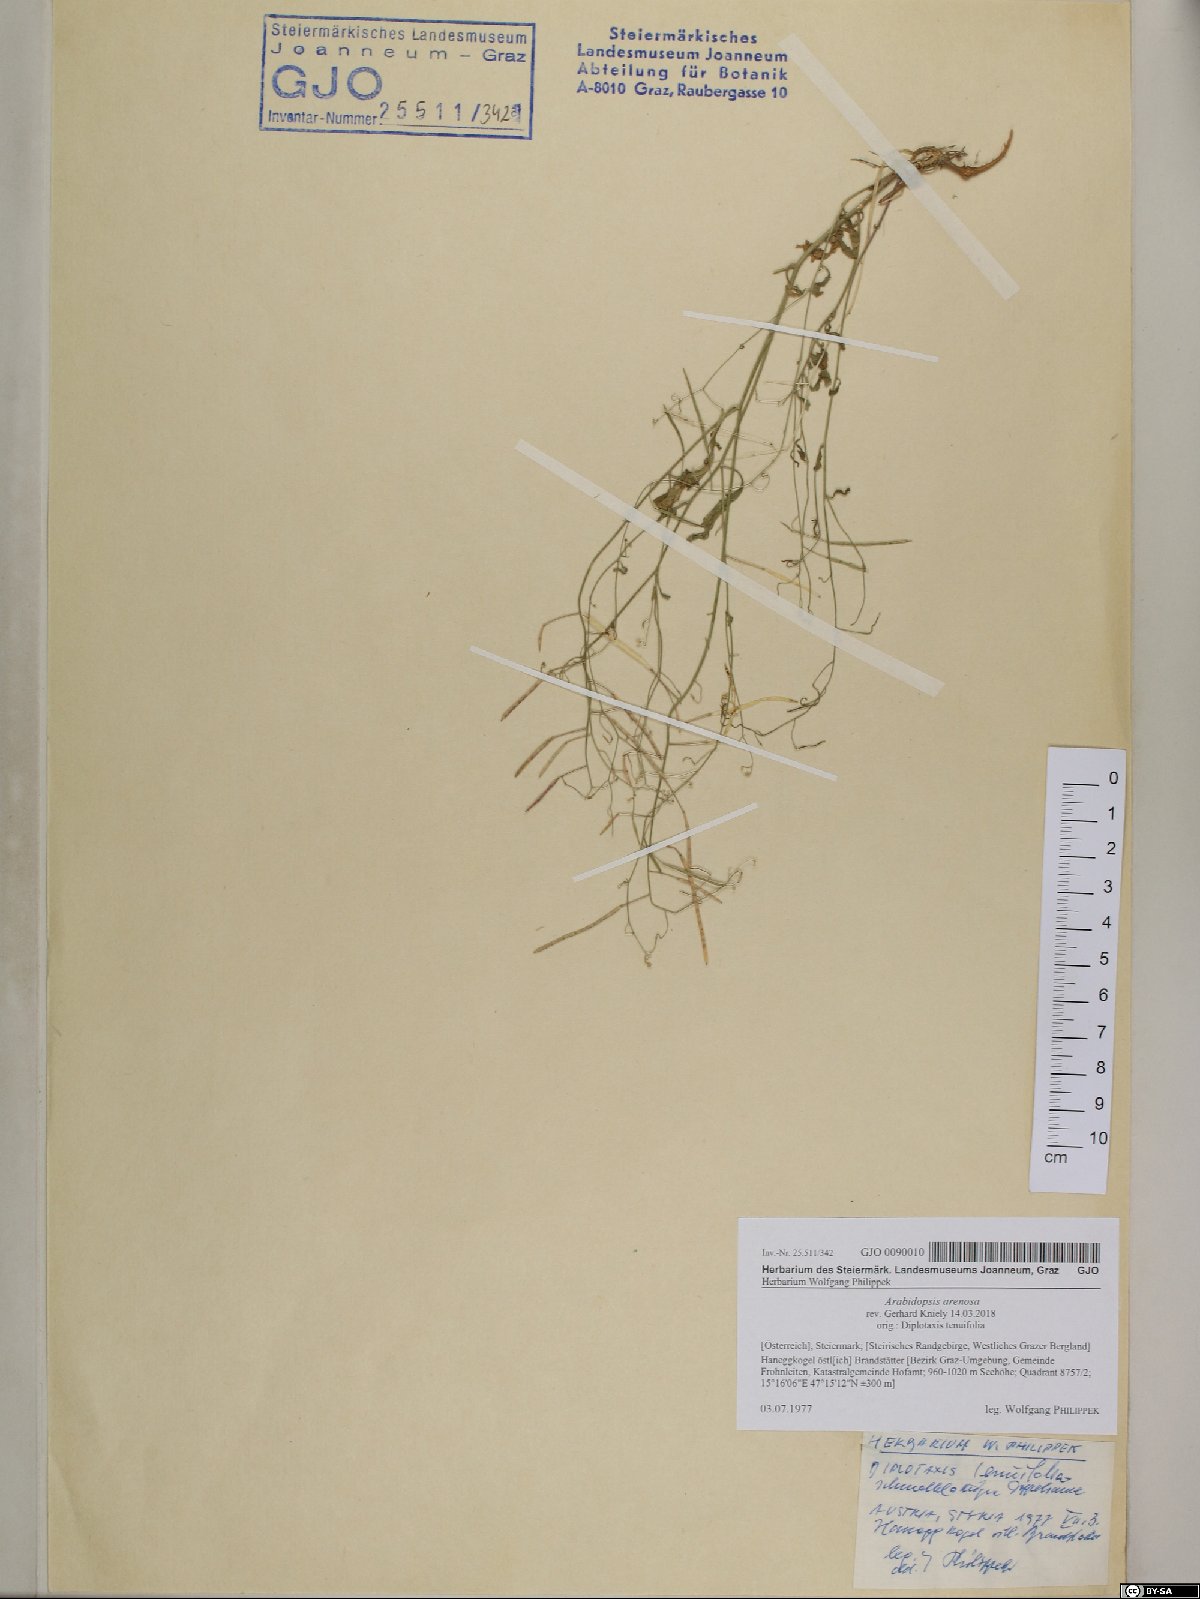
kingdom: Plantae
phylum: Tracheophyta
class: Magnoliopsida
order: Brassicales
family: Brassicaceae
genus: Arabidopsis
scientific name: Arabidopsis arenosa
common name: Sand rock-cress
